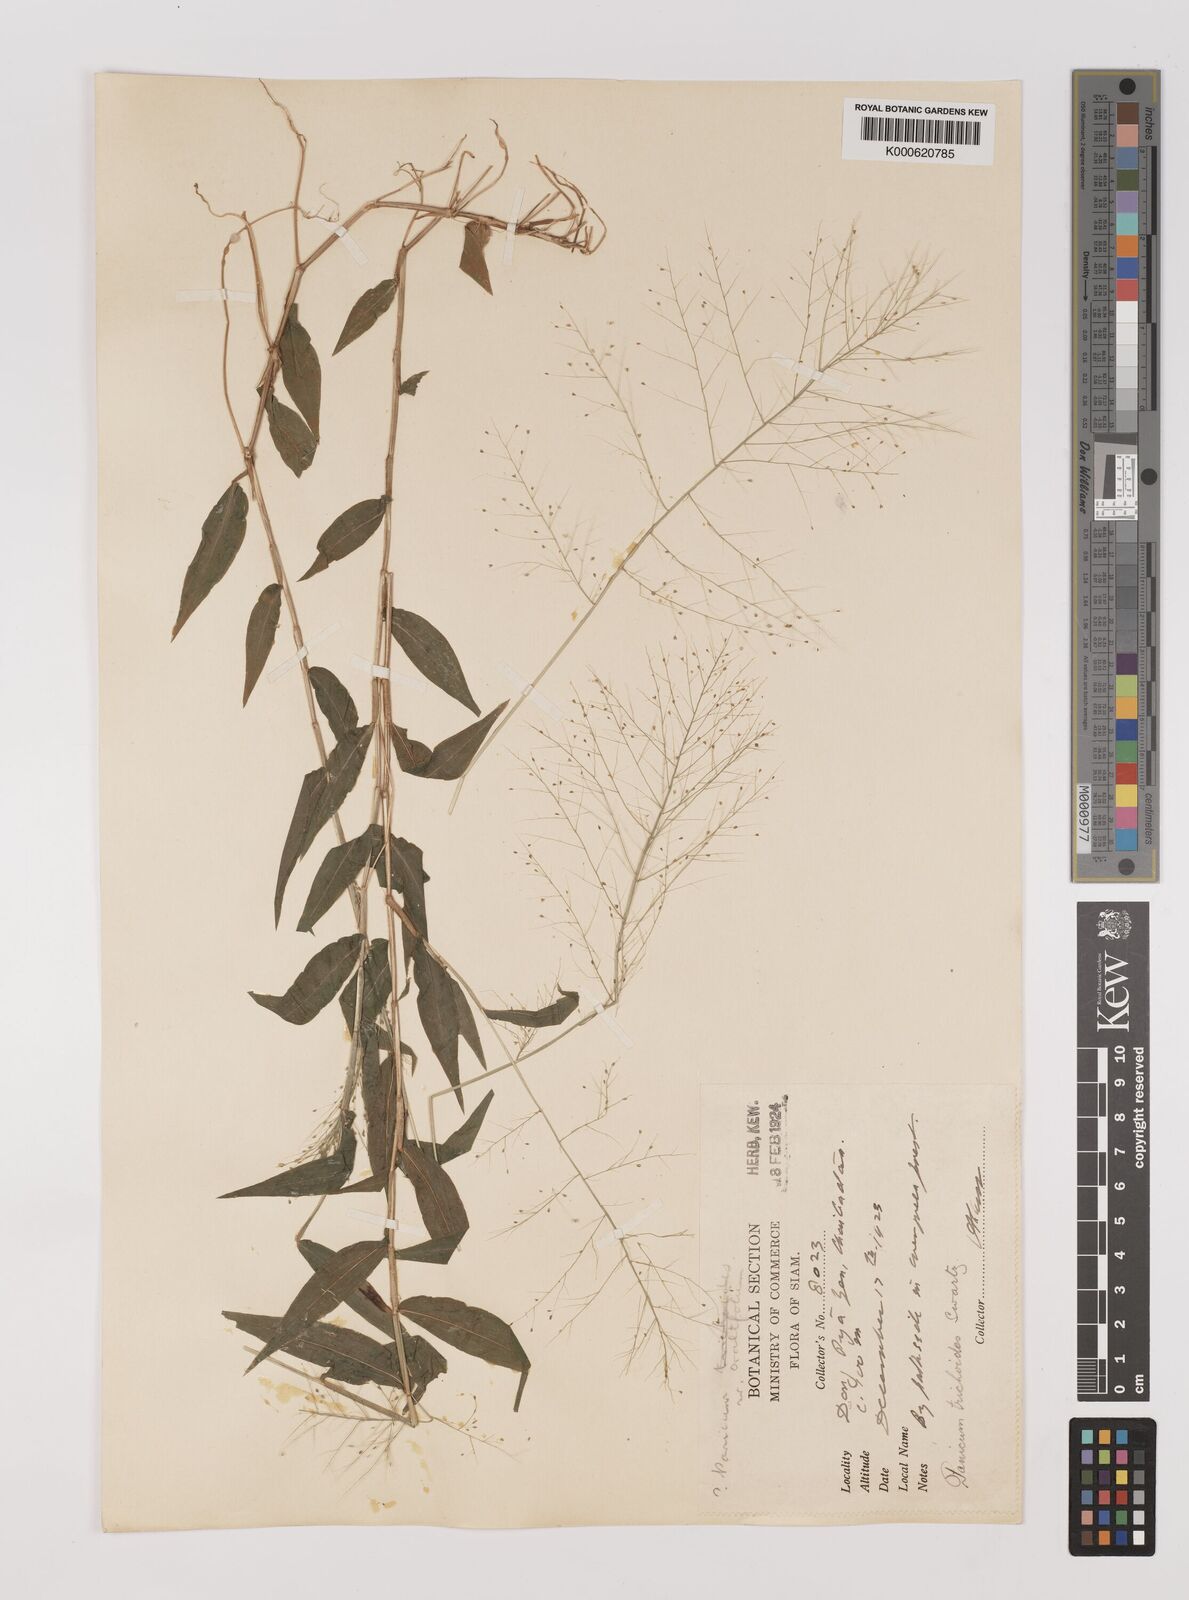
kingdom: Plantae
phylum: Tracheophyta
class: Liliopsida
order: Poales
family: Poaceae
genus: Panicum
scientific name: Panicum trichoides
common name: Tickle grass
